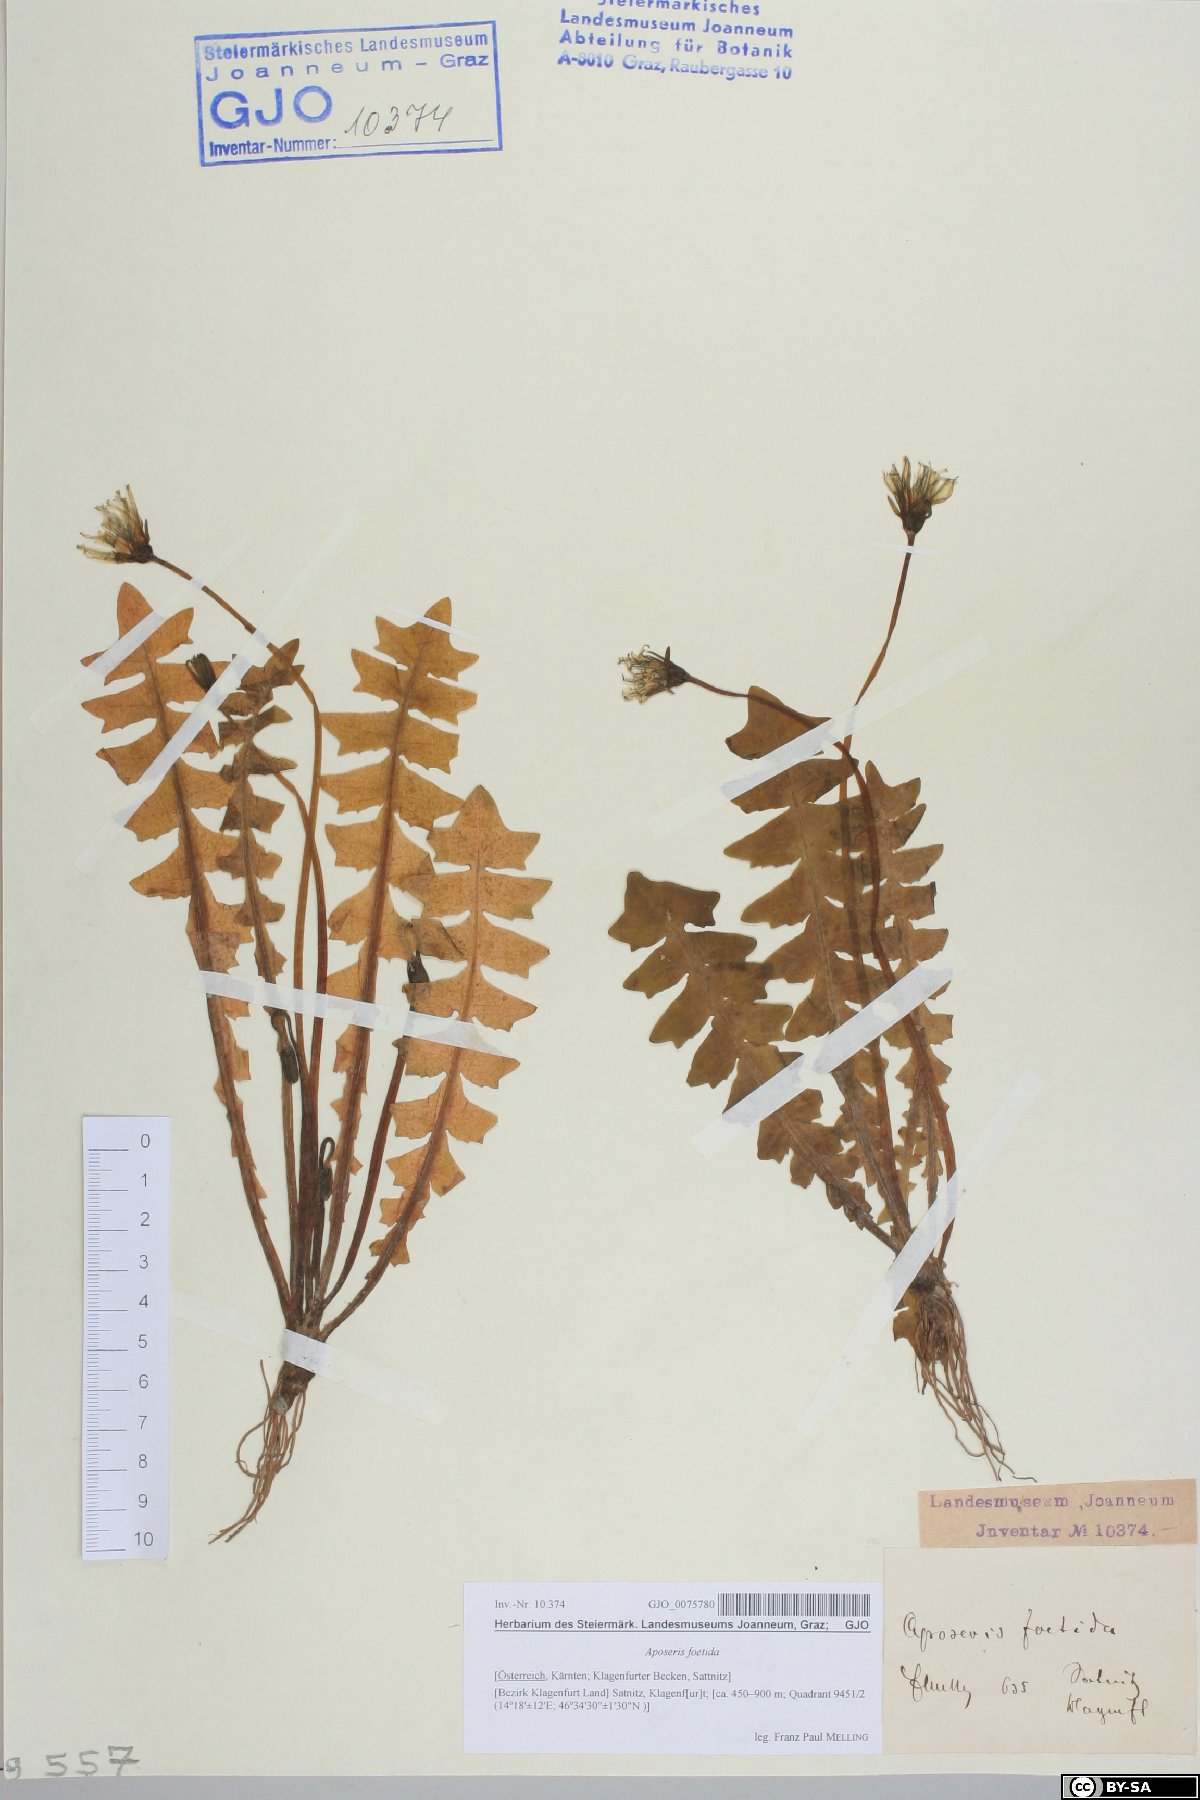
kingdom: Plantae
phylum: Tracheophyta
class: Magnoliopsida
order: Asterales
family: Asteraceae
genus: Aposeris
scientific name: Aposeris foetida
